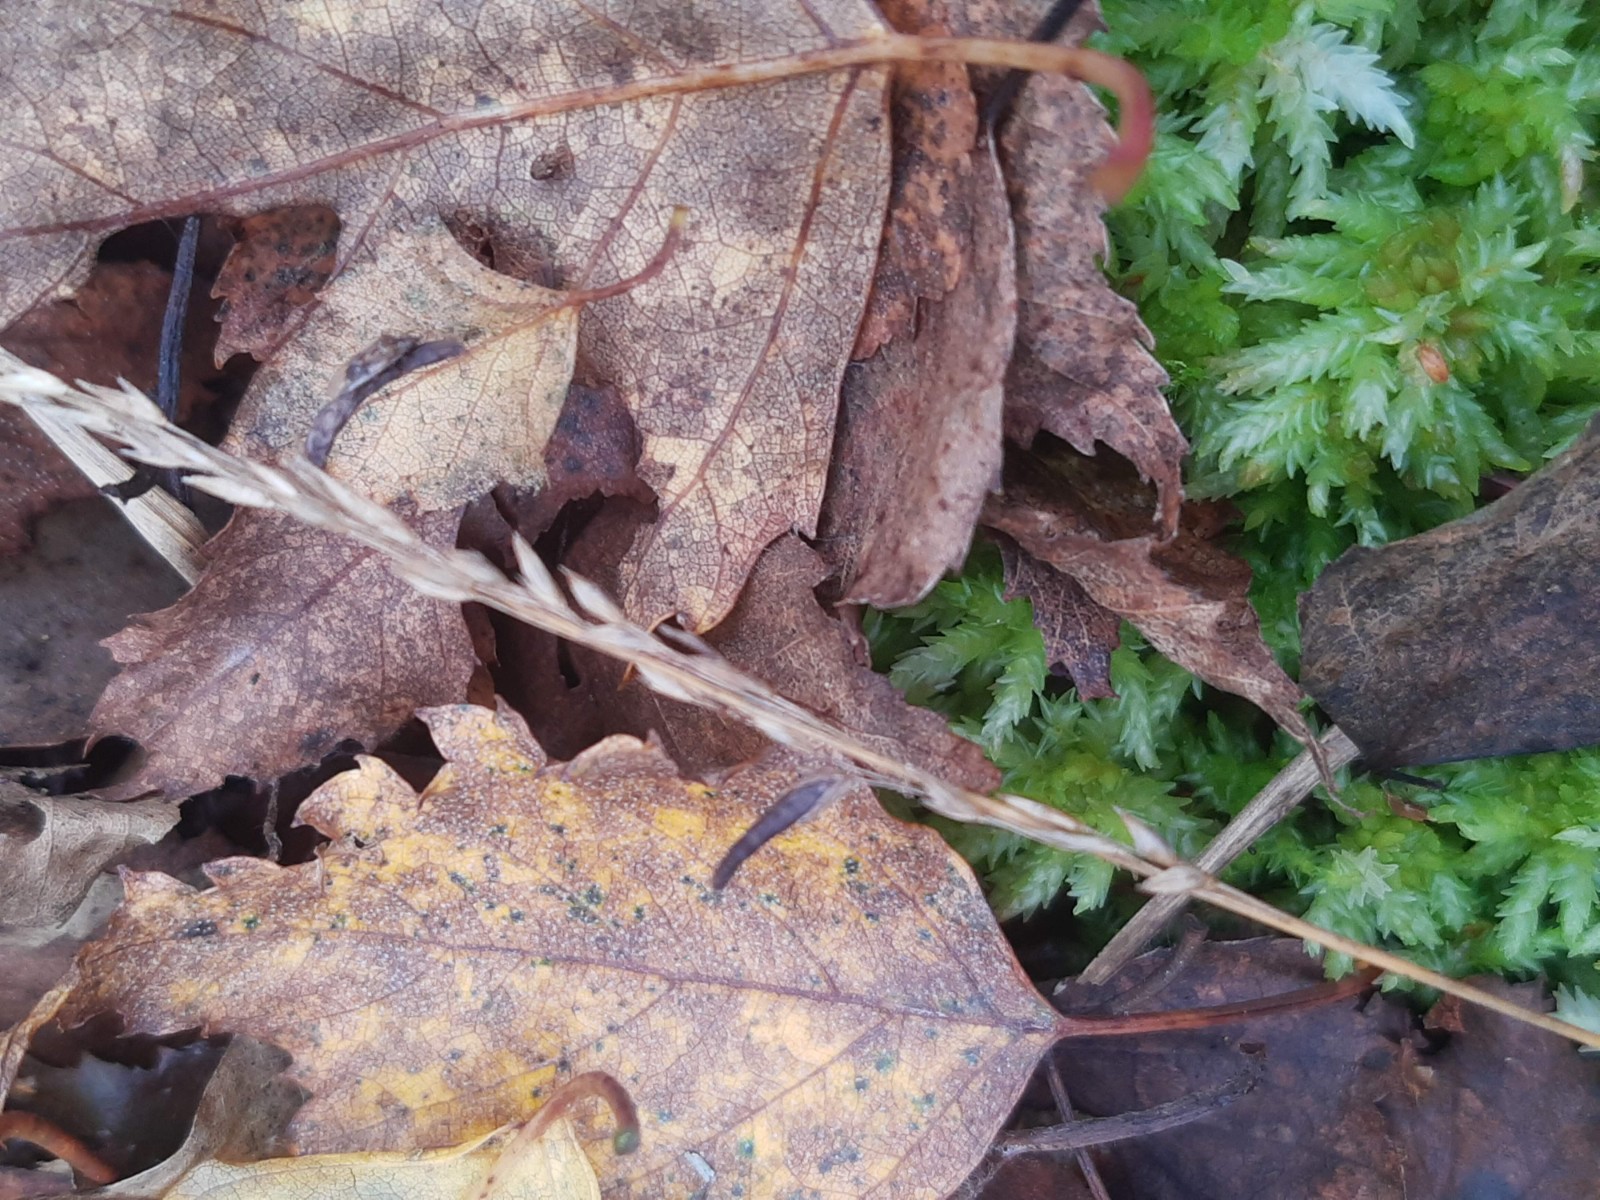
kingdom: Fungi
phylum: Ascomycota
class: Sordariomycetes
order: Hypocreales
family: Clavicipitaceae
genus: Claviceps
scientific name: Claviceps purpurea
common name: almindelig meldrøjer
